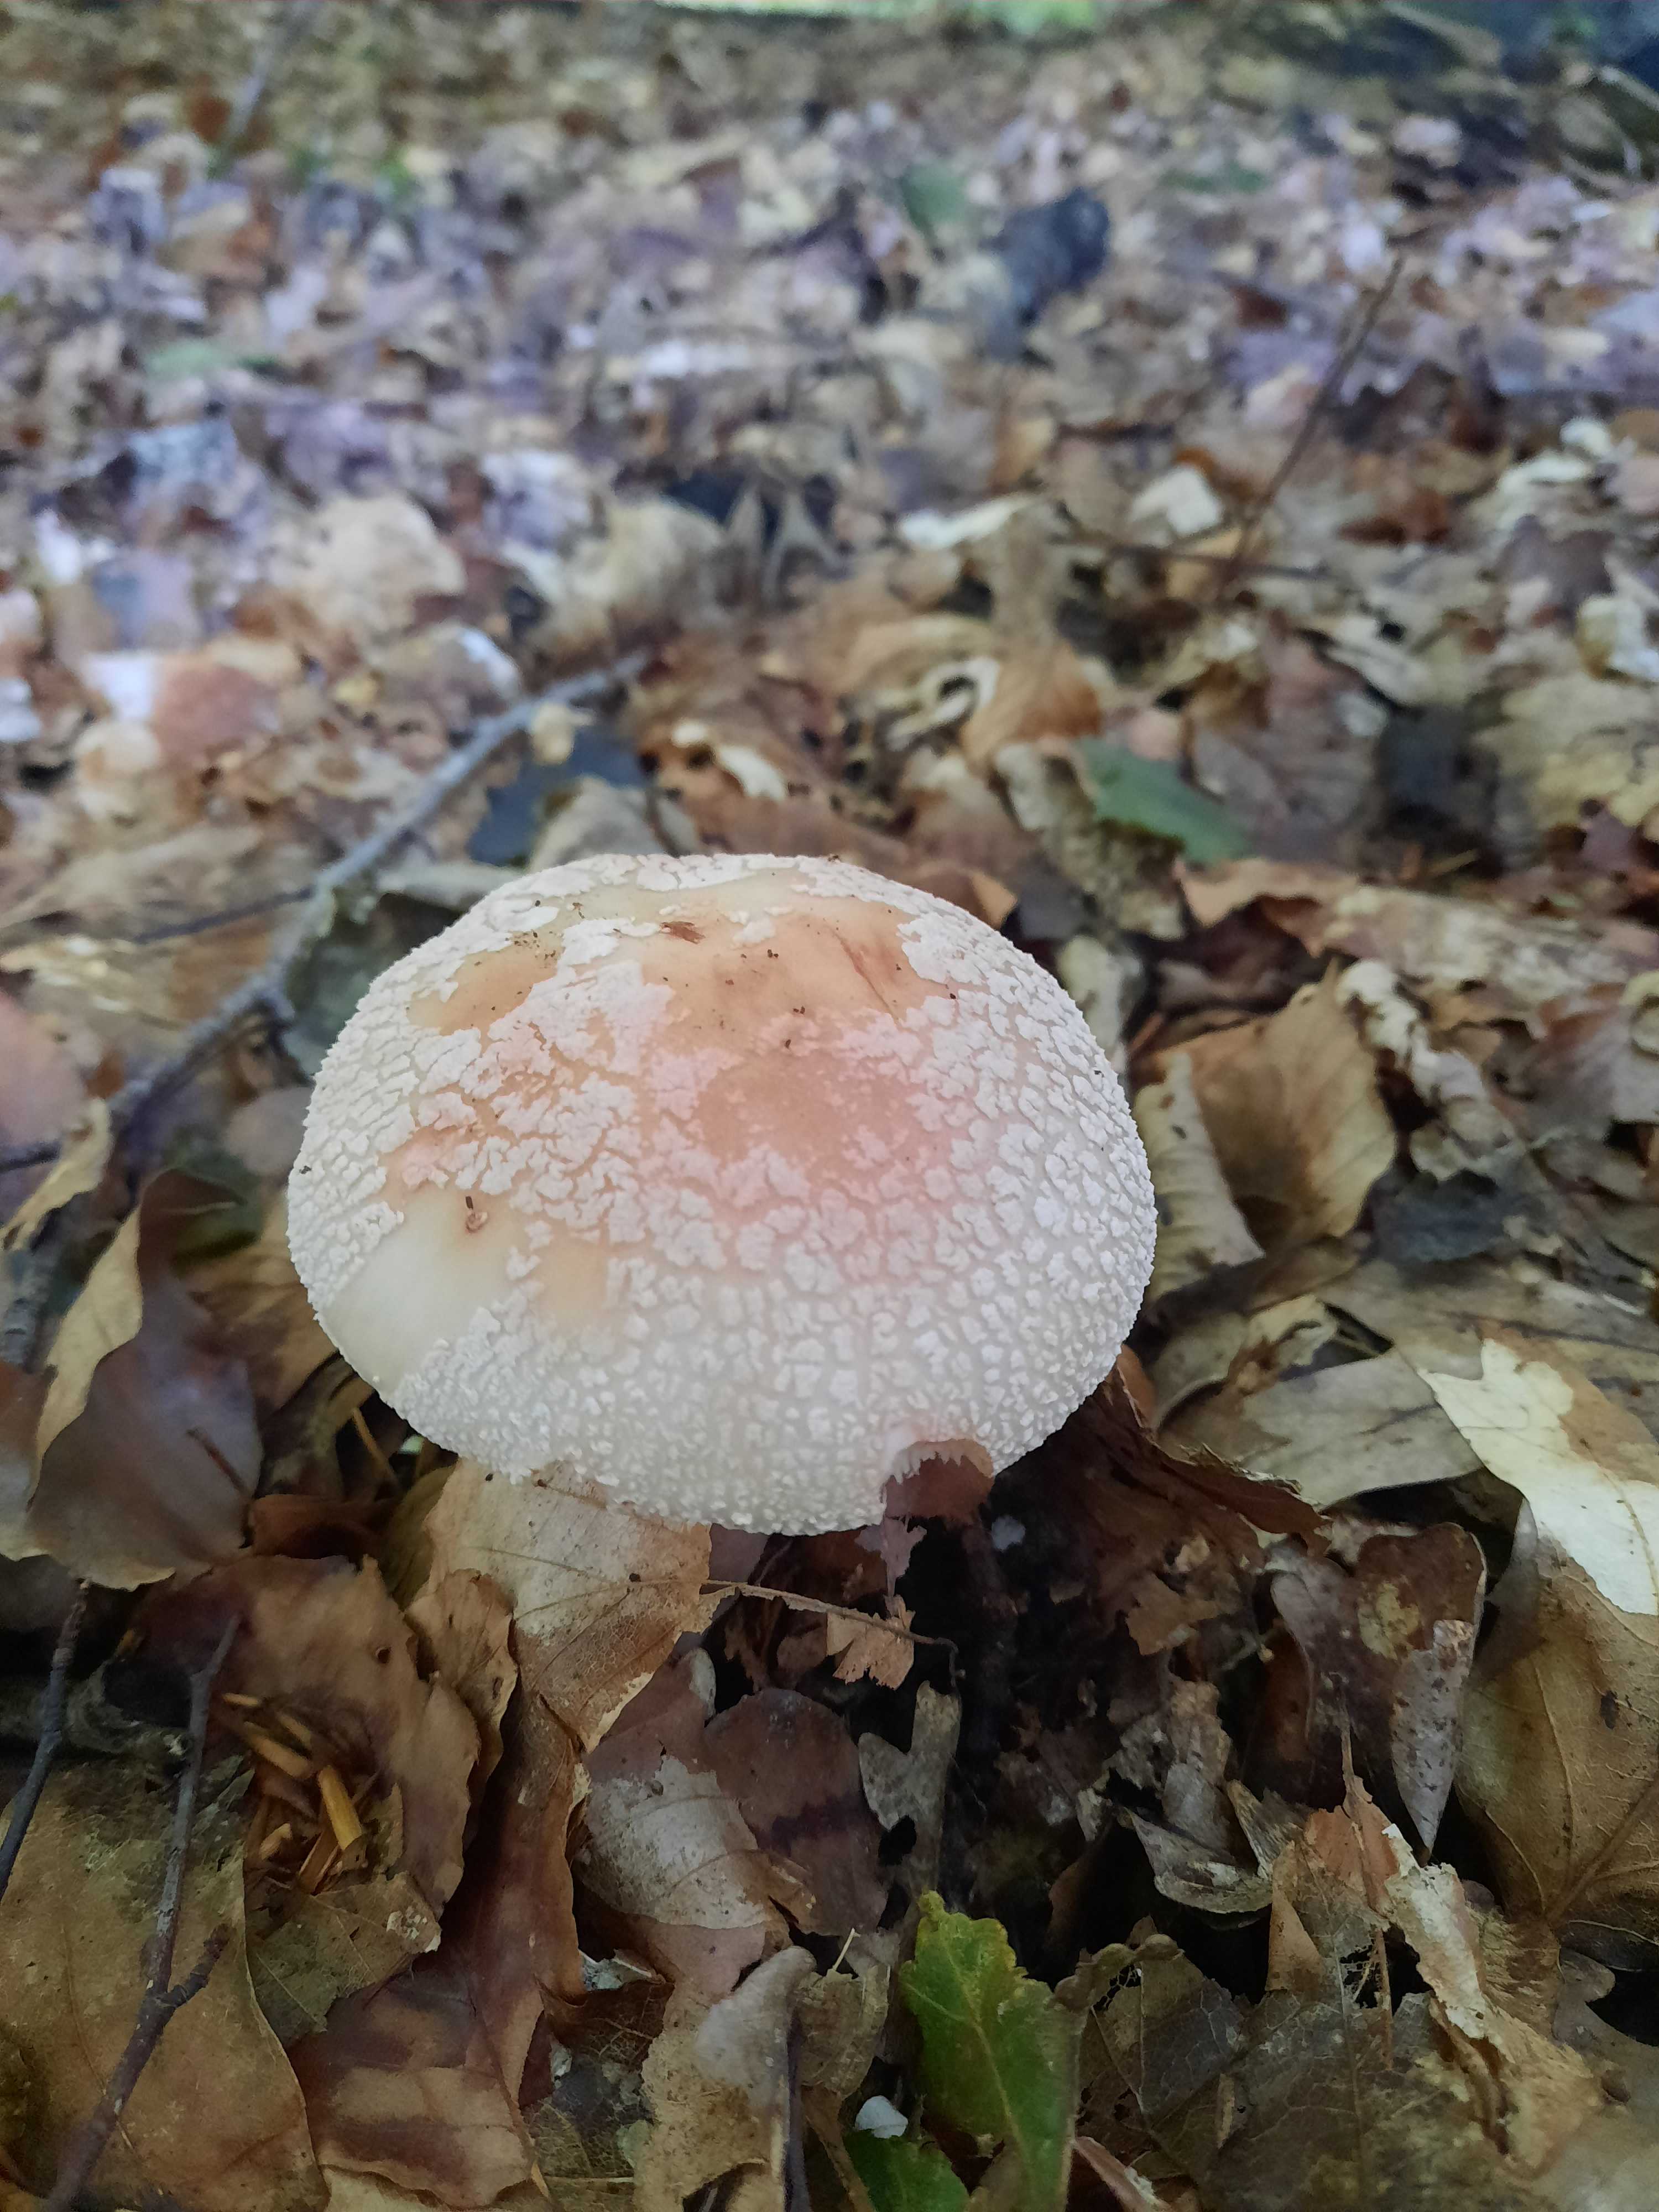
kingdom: Fungi
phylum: Basidiomycota
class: Agaricomycetes
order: Agaricales
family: Amanitaceae
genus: Amanita
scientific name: Amanita rubescens
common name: rødmende fluesvamp
